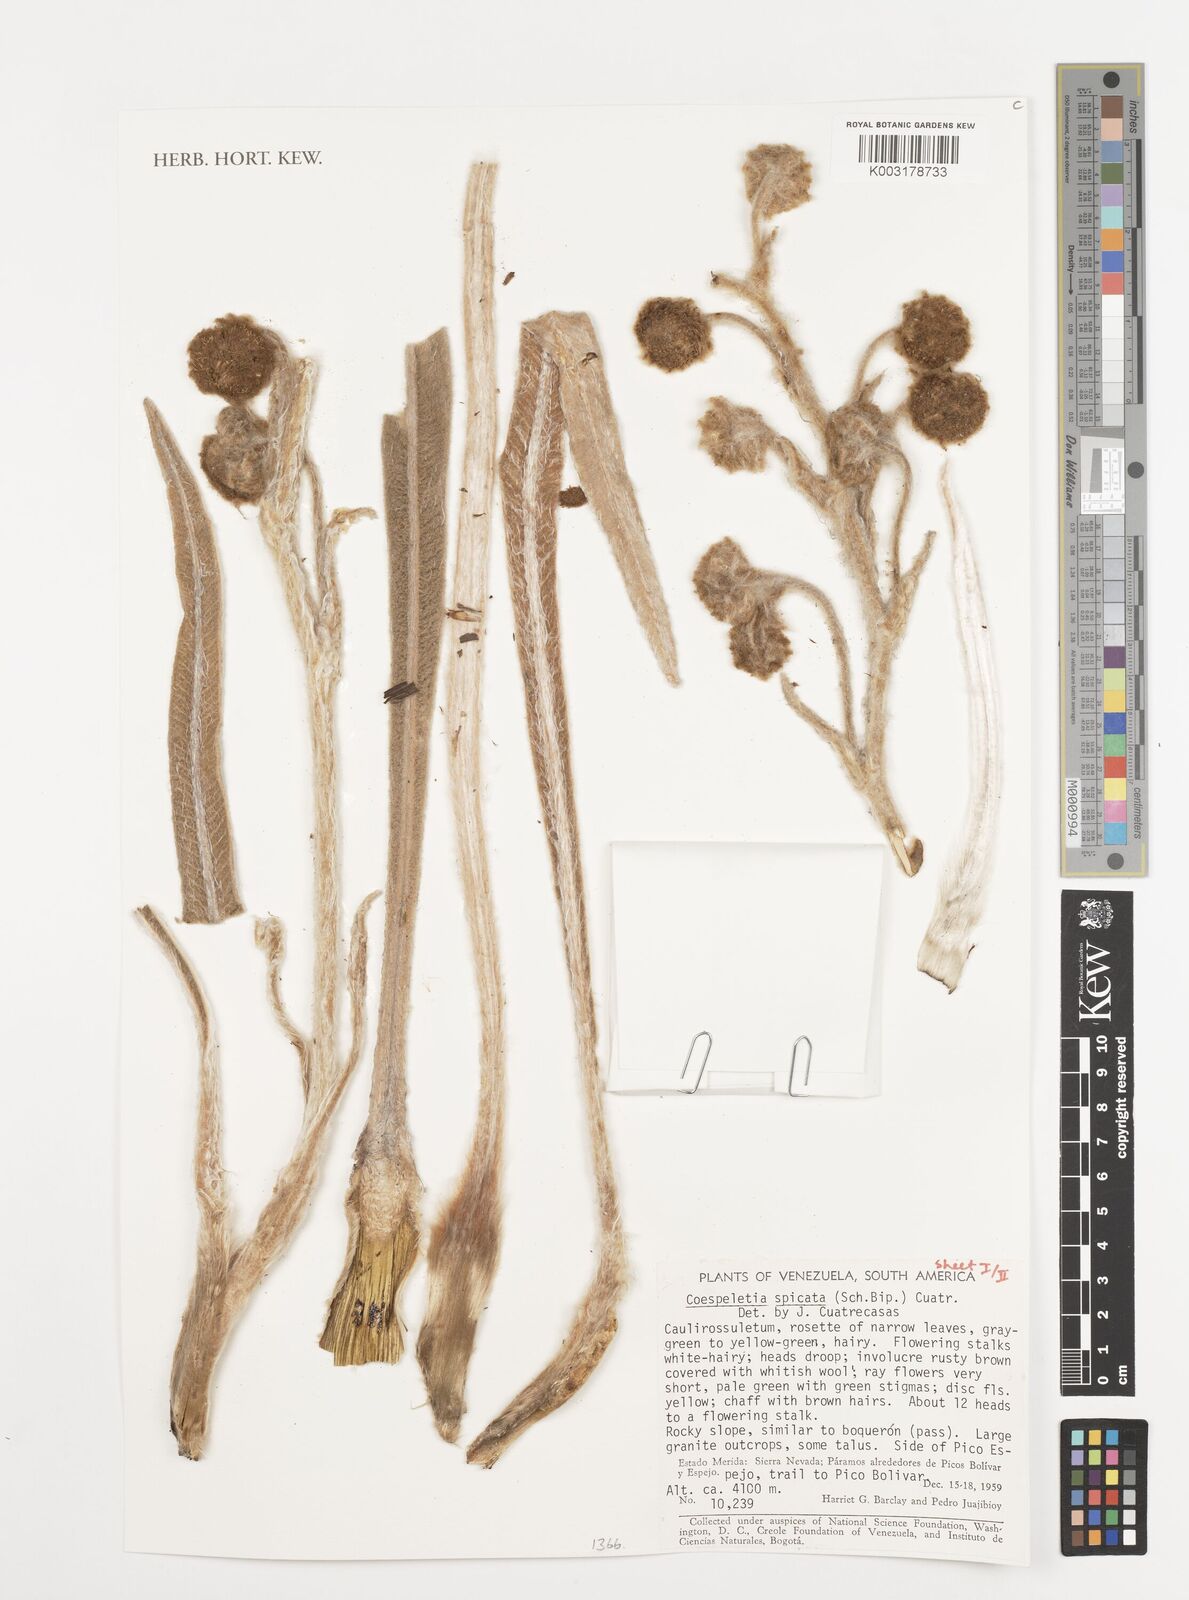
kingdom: Plantae
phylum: Tracheophyta
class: Magnoliopsida
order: Asterales
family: Asteraceae
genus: Espeletia
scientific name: Espeletia spicata
